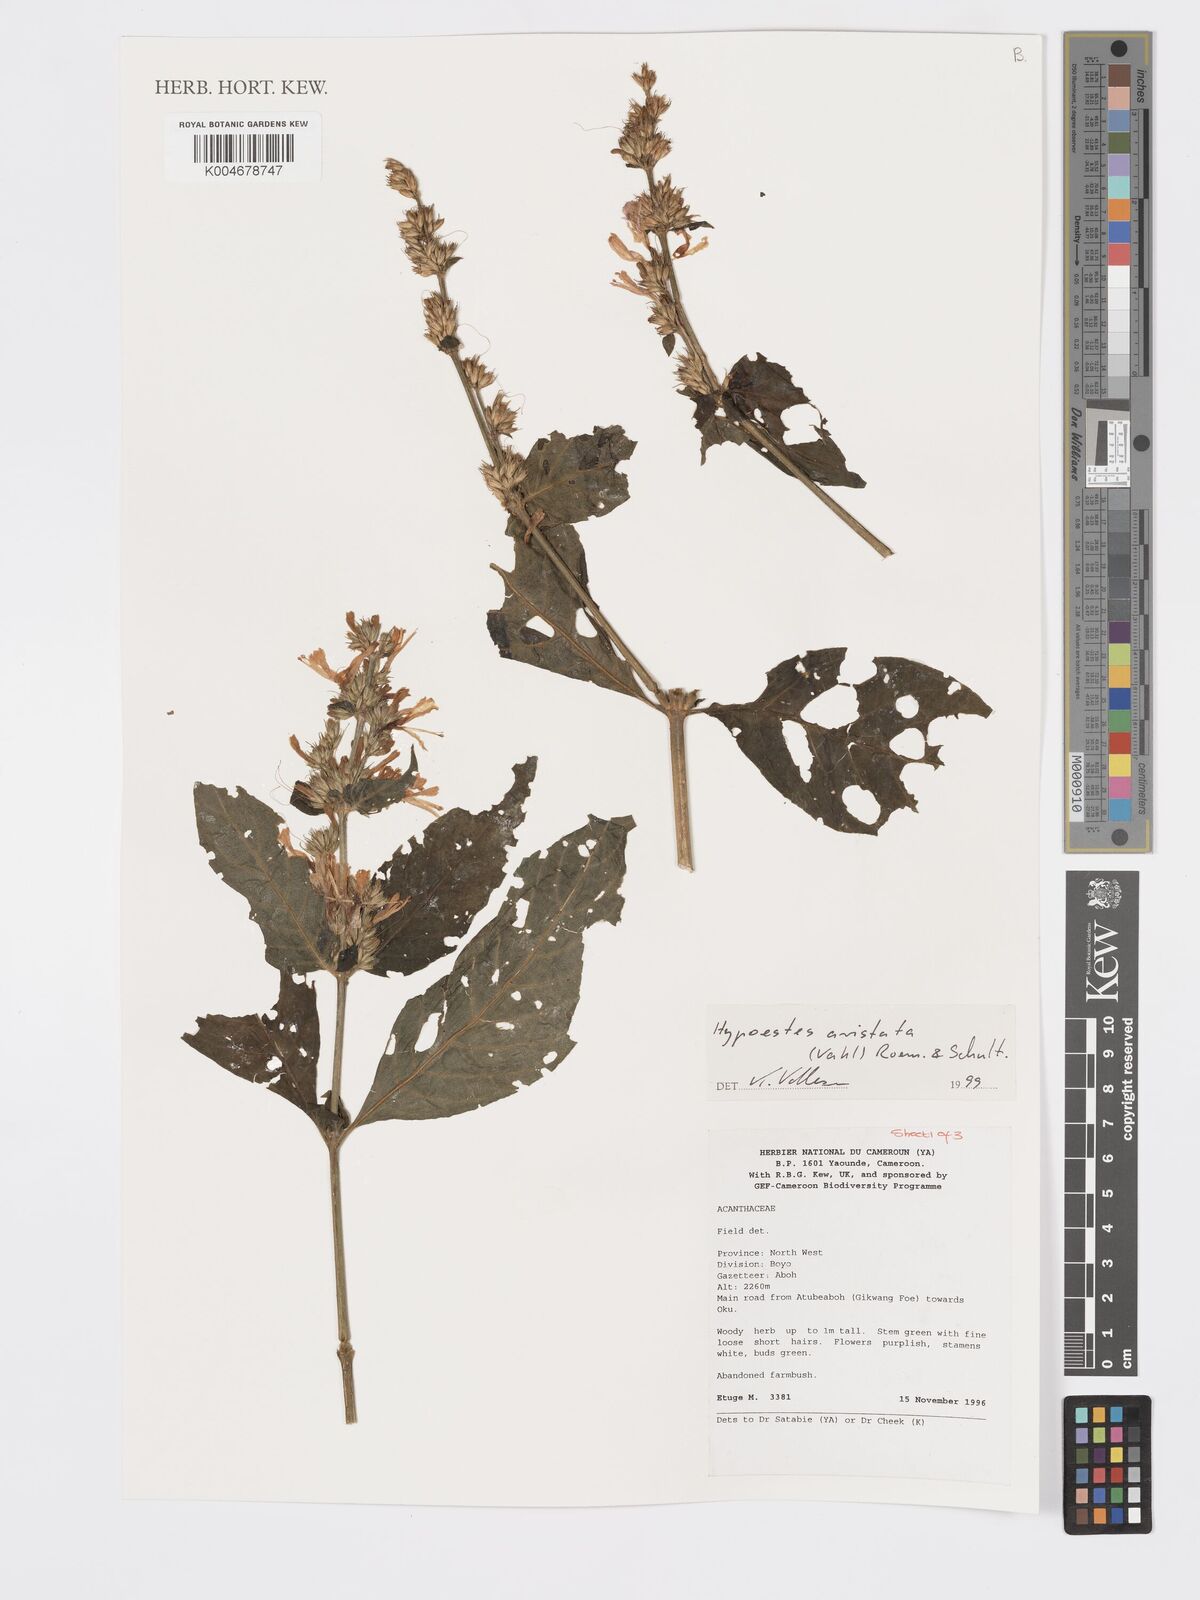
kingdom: Plantae
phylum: Tracheophyta
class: Magnoliopsida
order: Lamiales
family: Acanthaceae
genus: Hypoestes
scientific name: Hypoestes aristata
